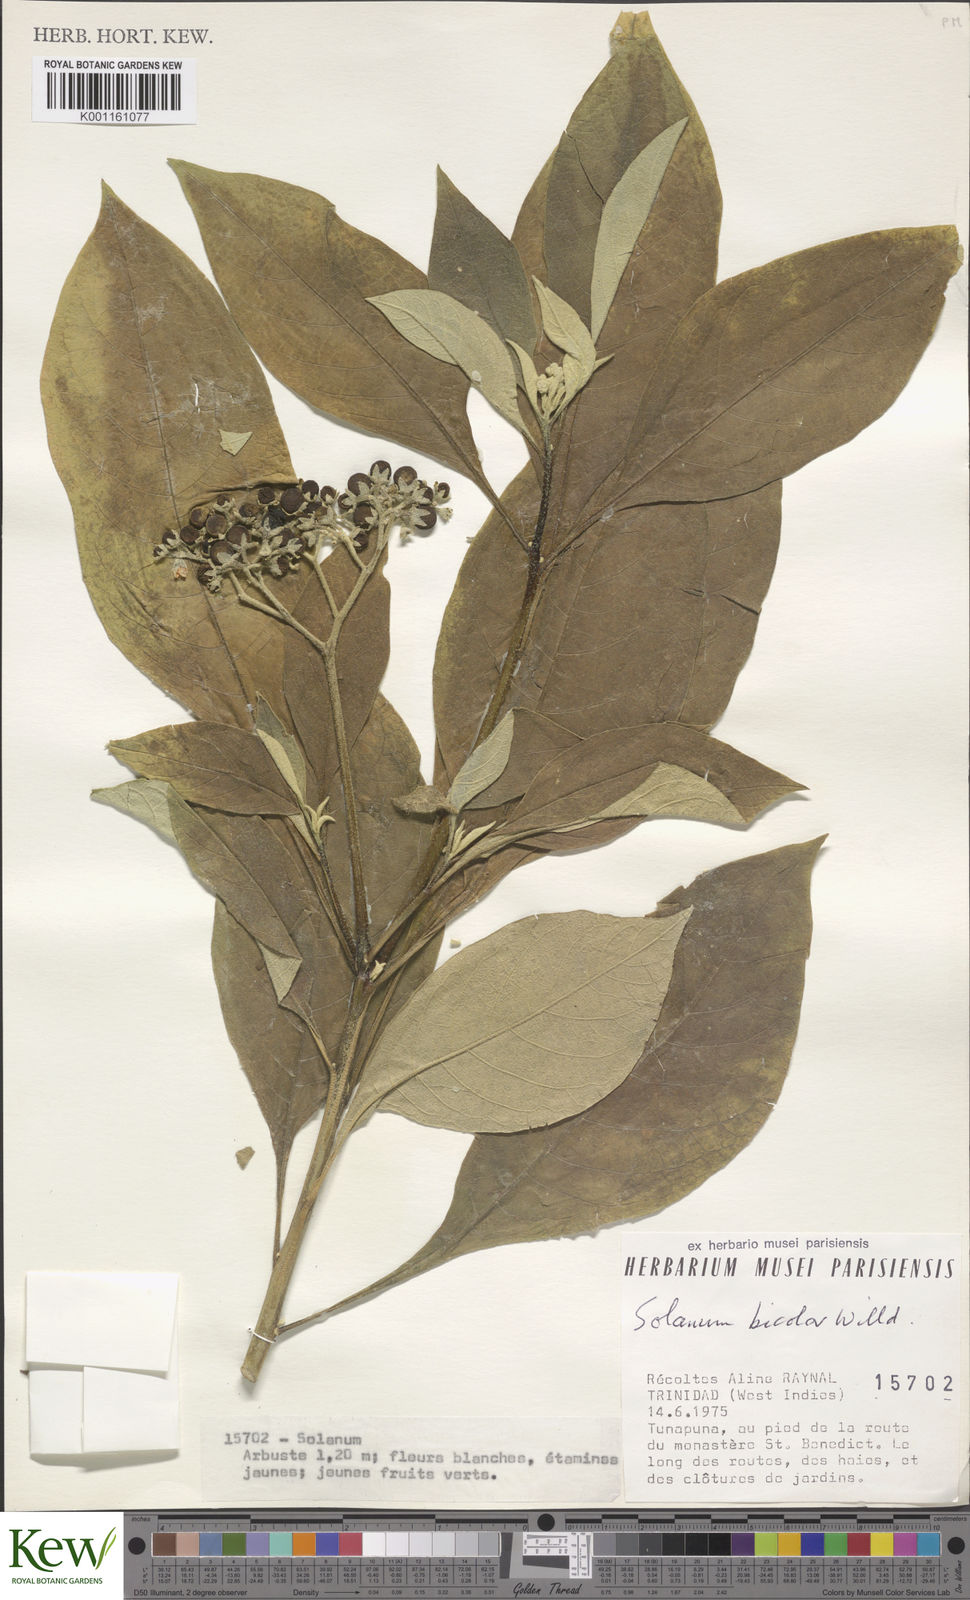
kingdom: Plantae
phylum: Tracheophyta
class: Magnoliopsida
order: Solanales
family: Solanaceae
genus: Solanum
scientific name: Solanum bicolor
